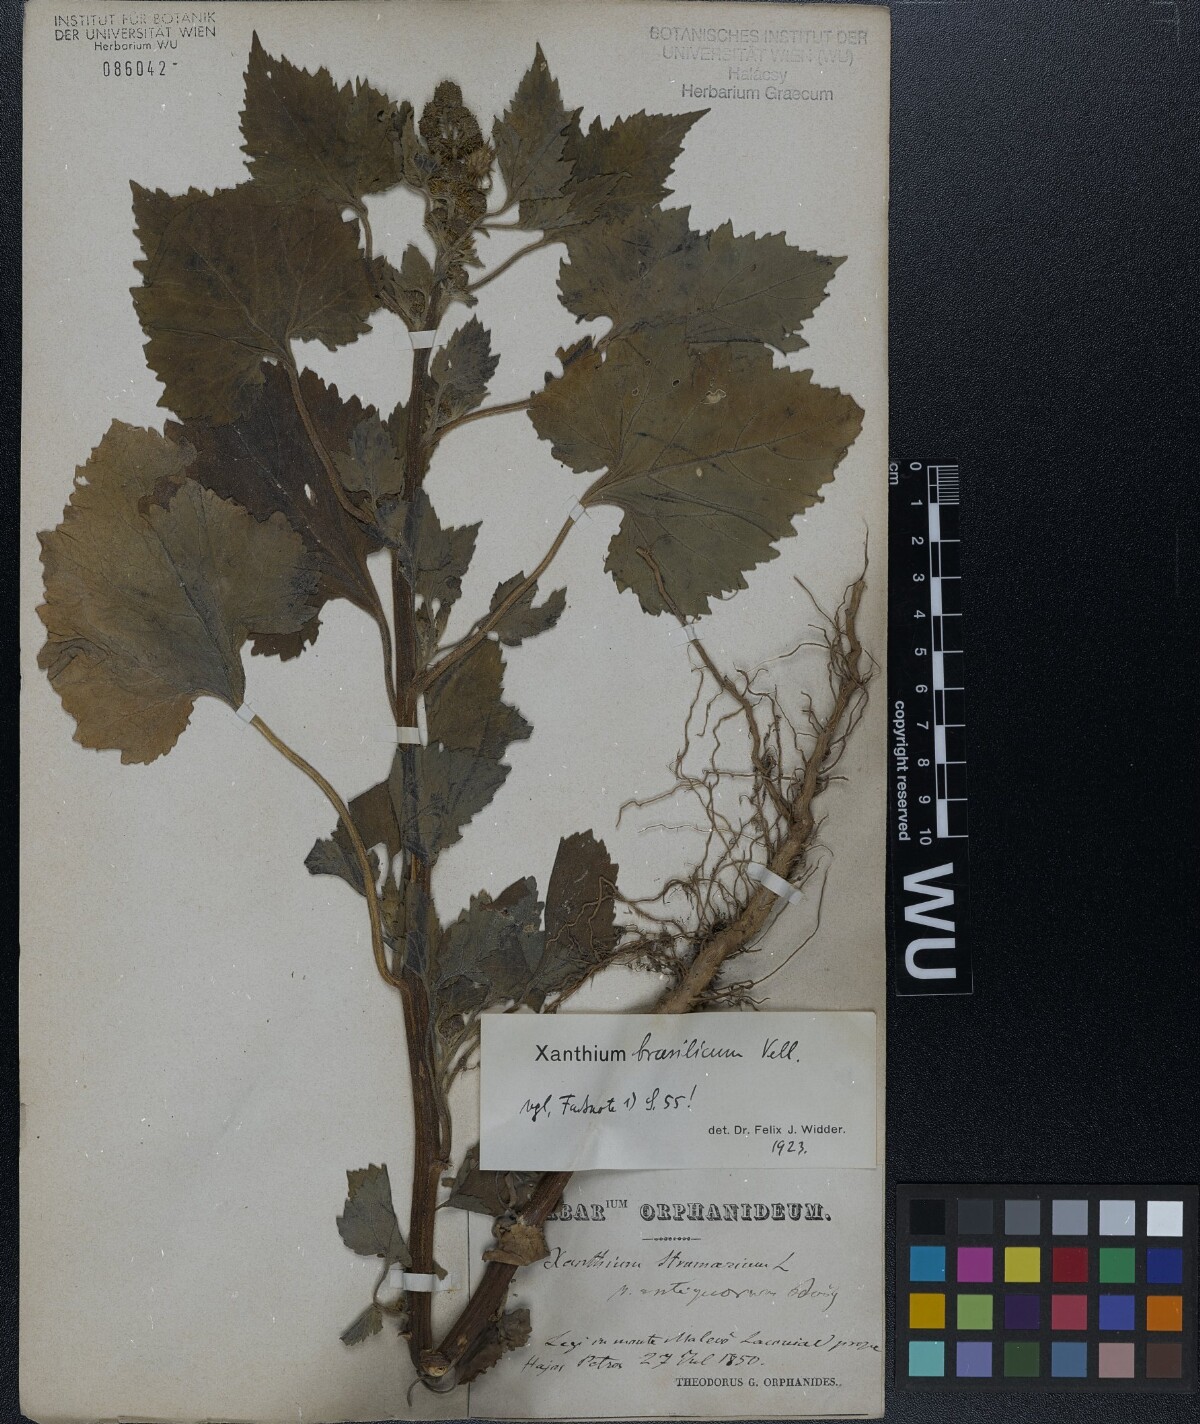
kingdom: Plantae
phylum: Tracheophyta
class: Magnoliopsida
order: Asterales
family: Asteraceae
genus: Xanthium
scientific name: Xanthium strumarium
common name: Rough cocklebur
